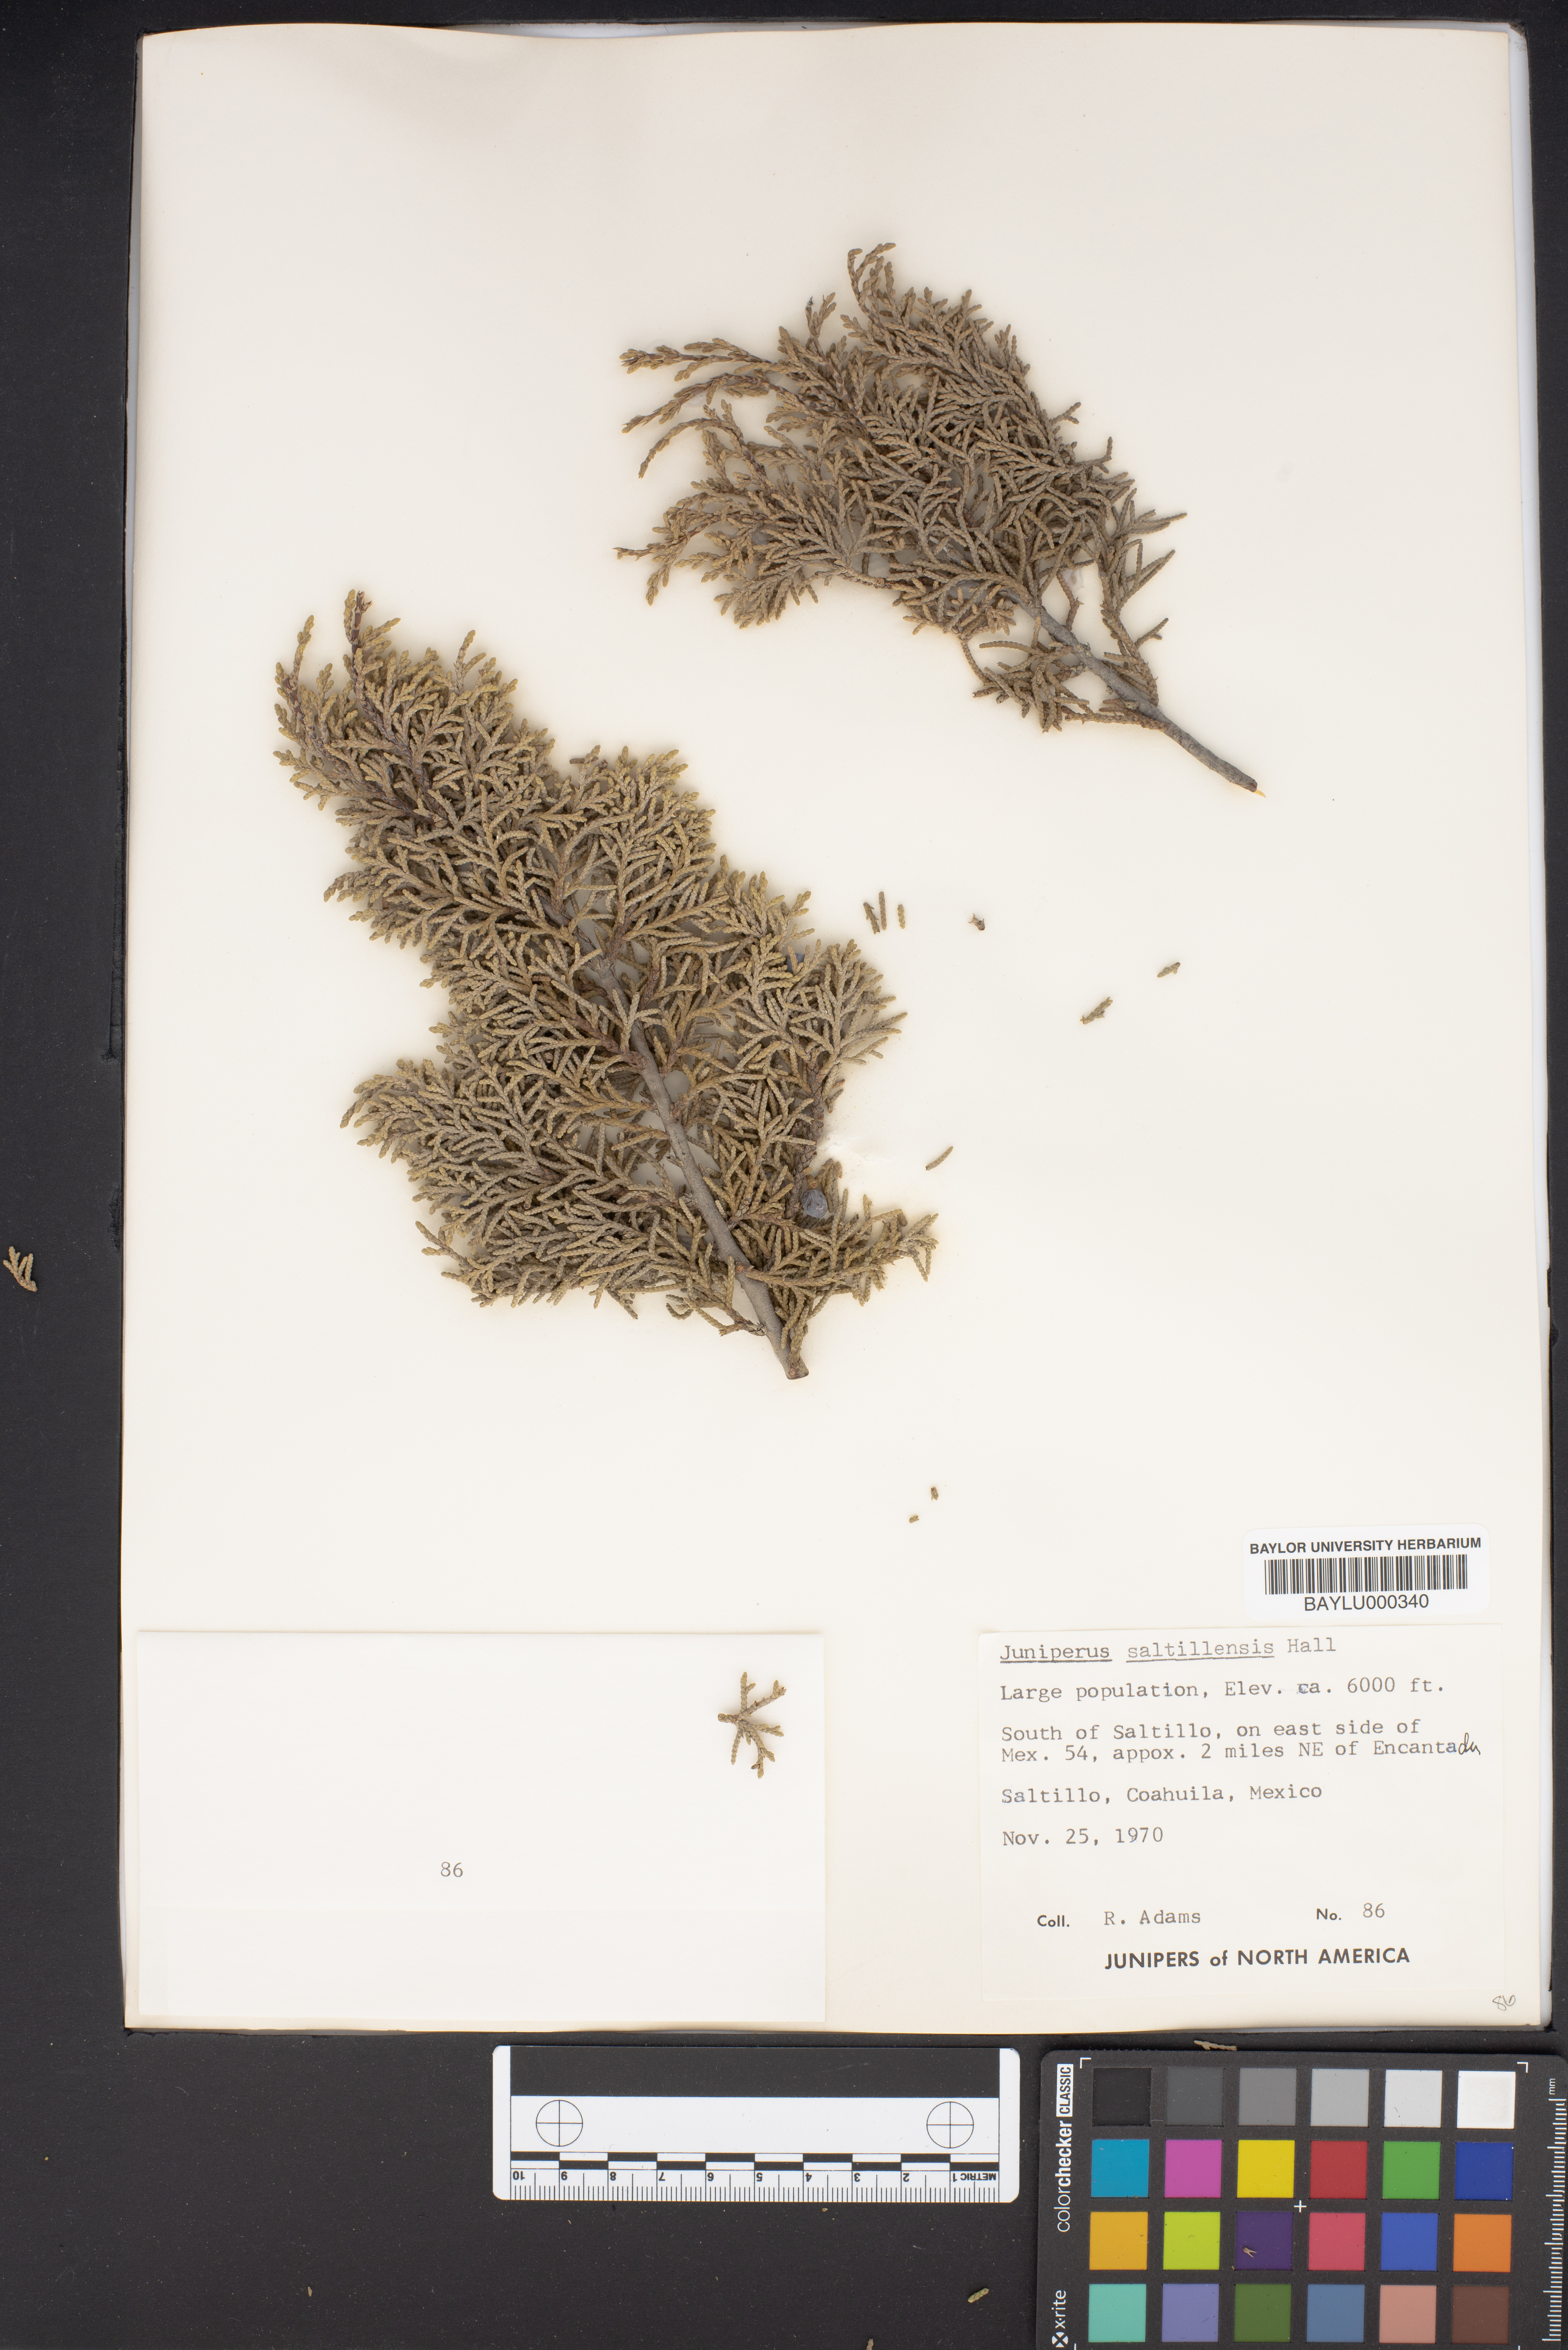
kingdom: Plantae
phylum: Tracheophyta
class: Pinopsida
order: Pinales
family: Cupressaceae
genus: Juniperus
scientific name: Juniperus saltillensis
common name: Saltillo juniper
